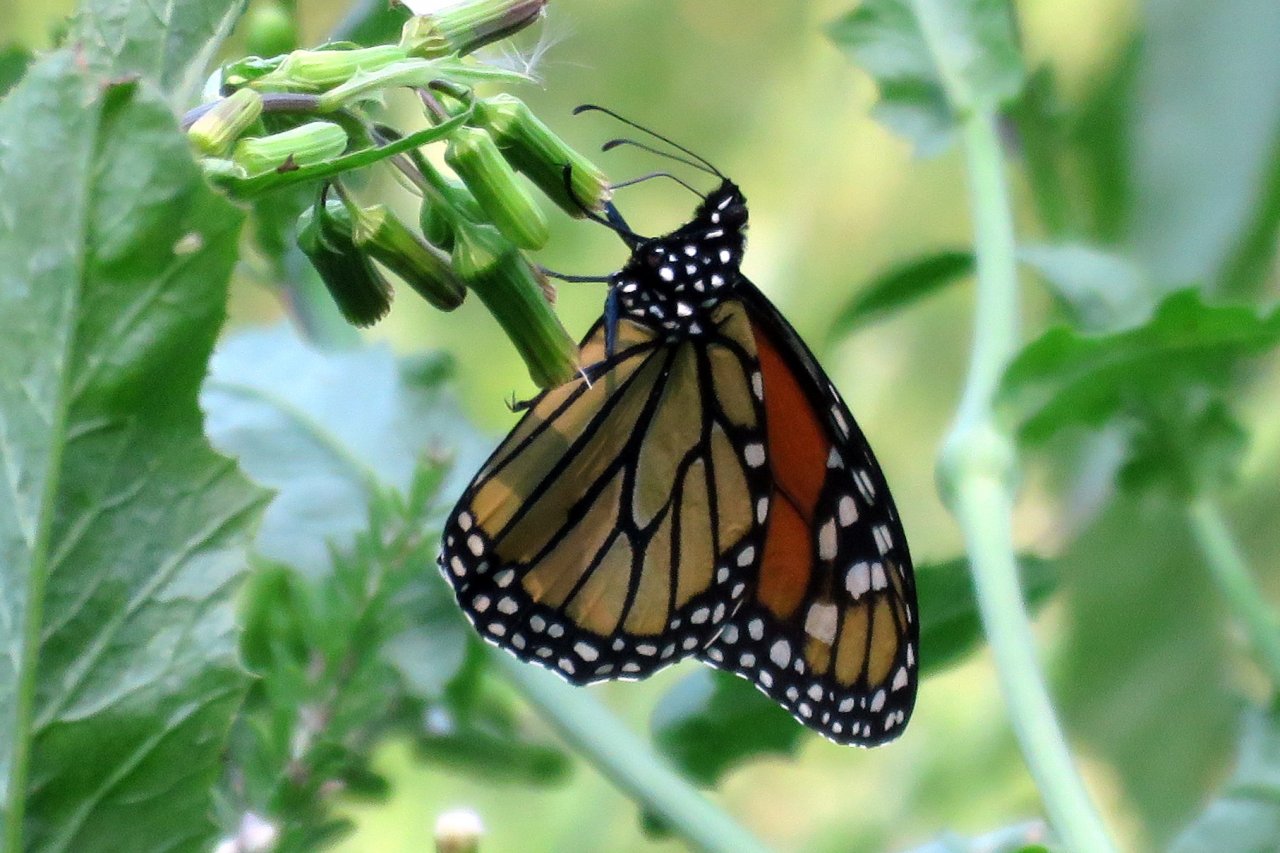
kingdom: Animalia
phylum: Arthropoda
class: Insecta
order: Lepidoptera
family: Nymphalidae
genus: Danaus
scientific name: Danaus plexippus
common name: Monarch
